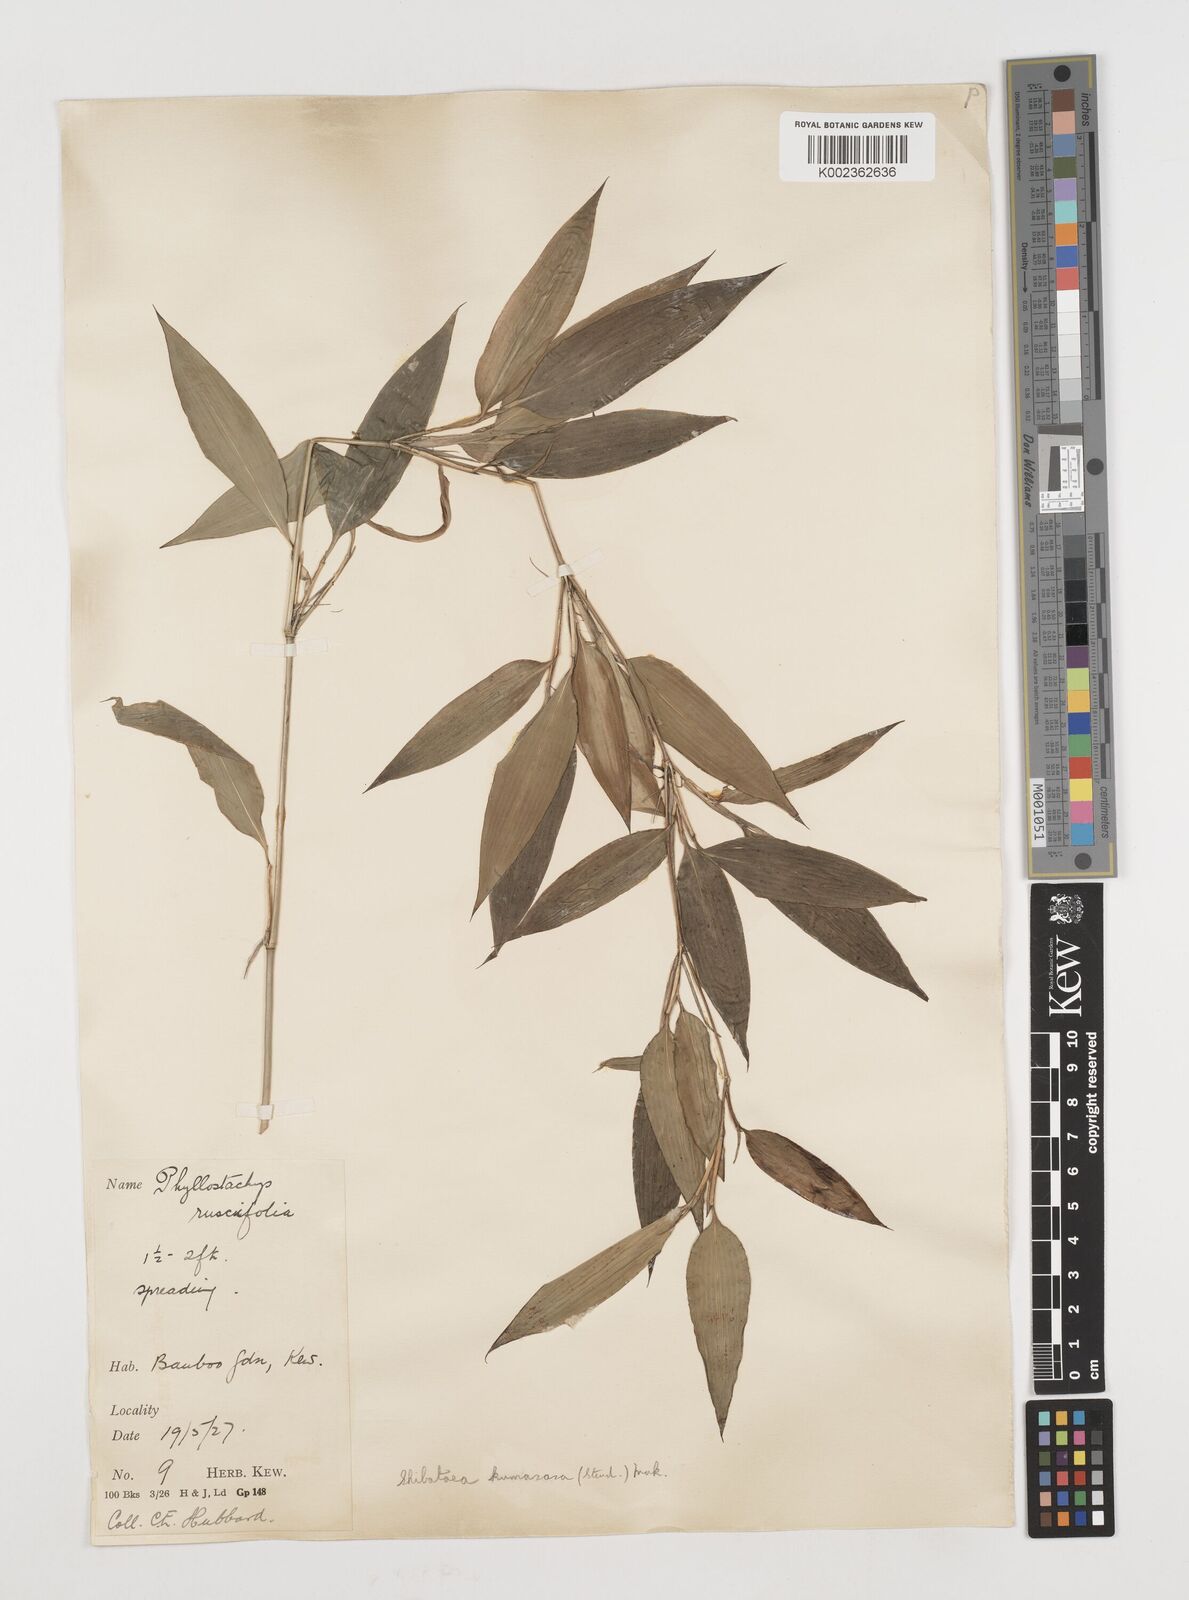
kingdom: Plantae
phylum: Tracheophyta
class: Liliopsida
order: Poales
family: Poaceae
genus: Shibataea
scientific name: Shibataea kumasasa
